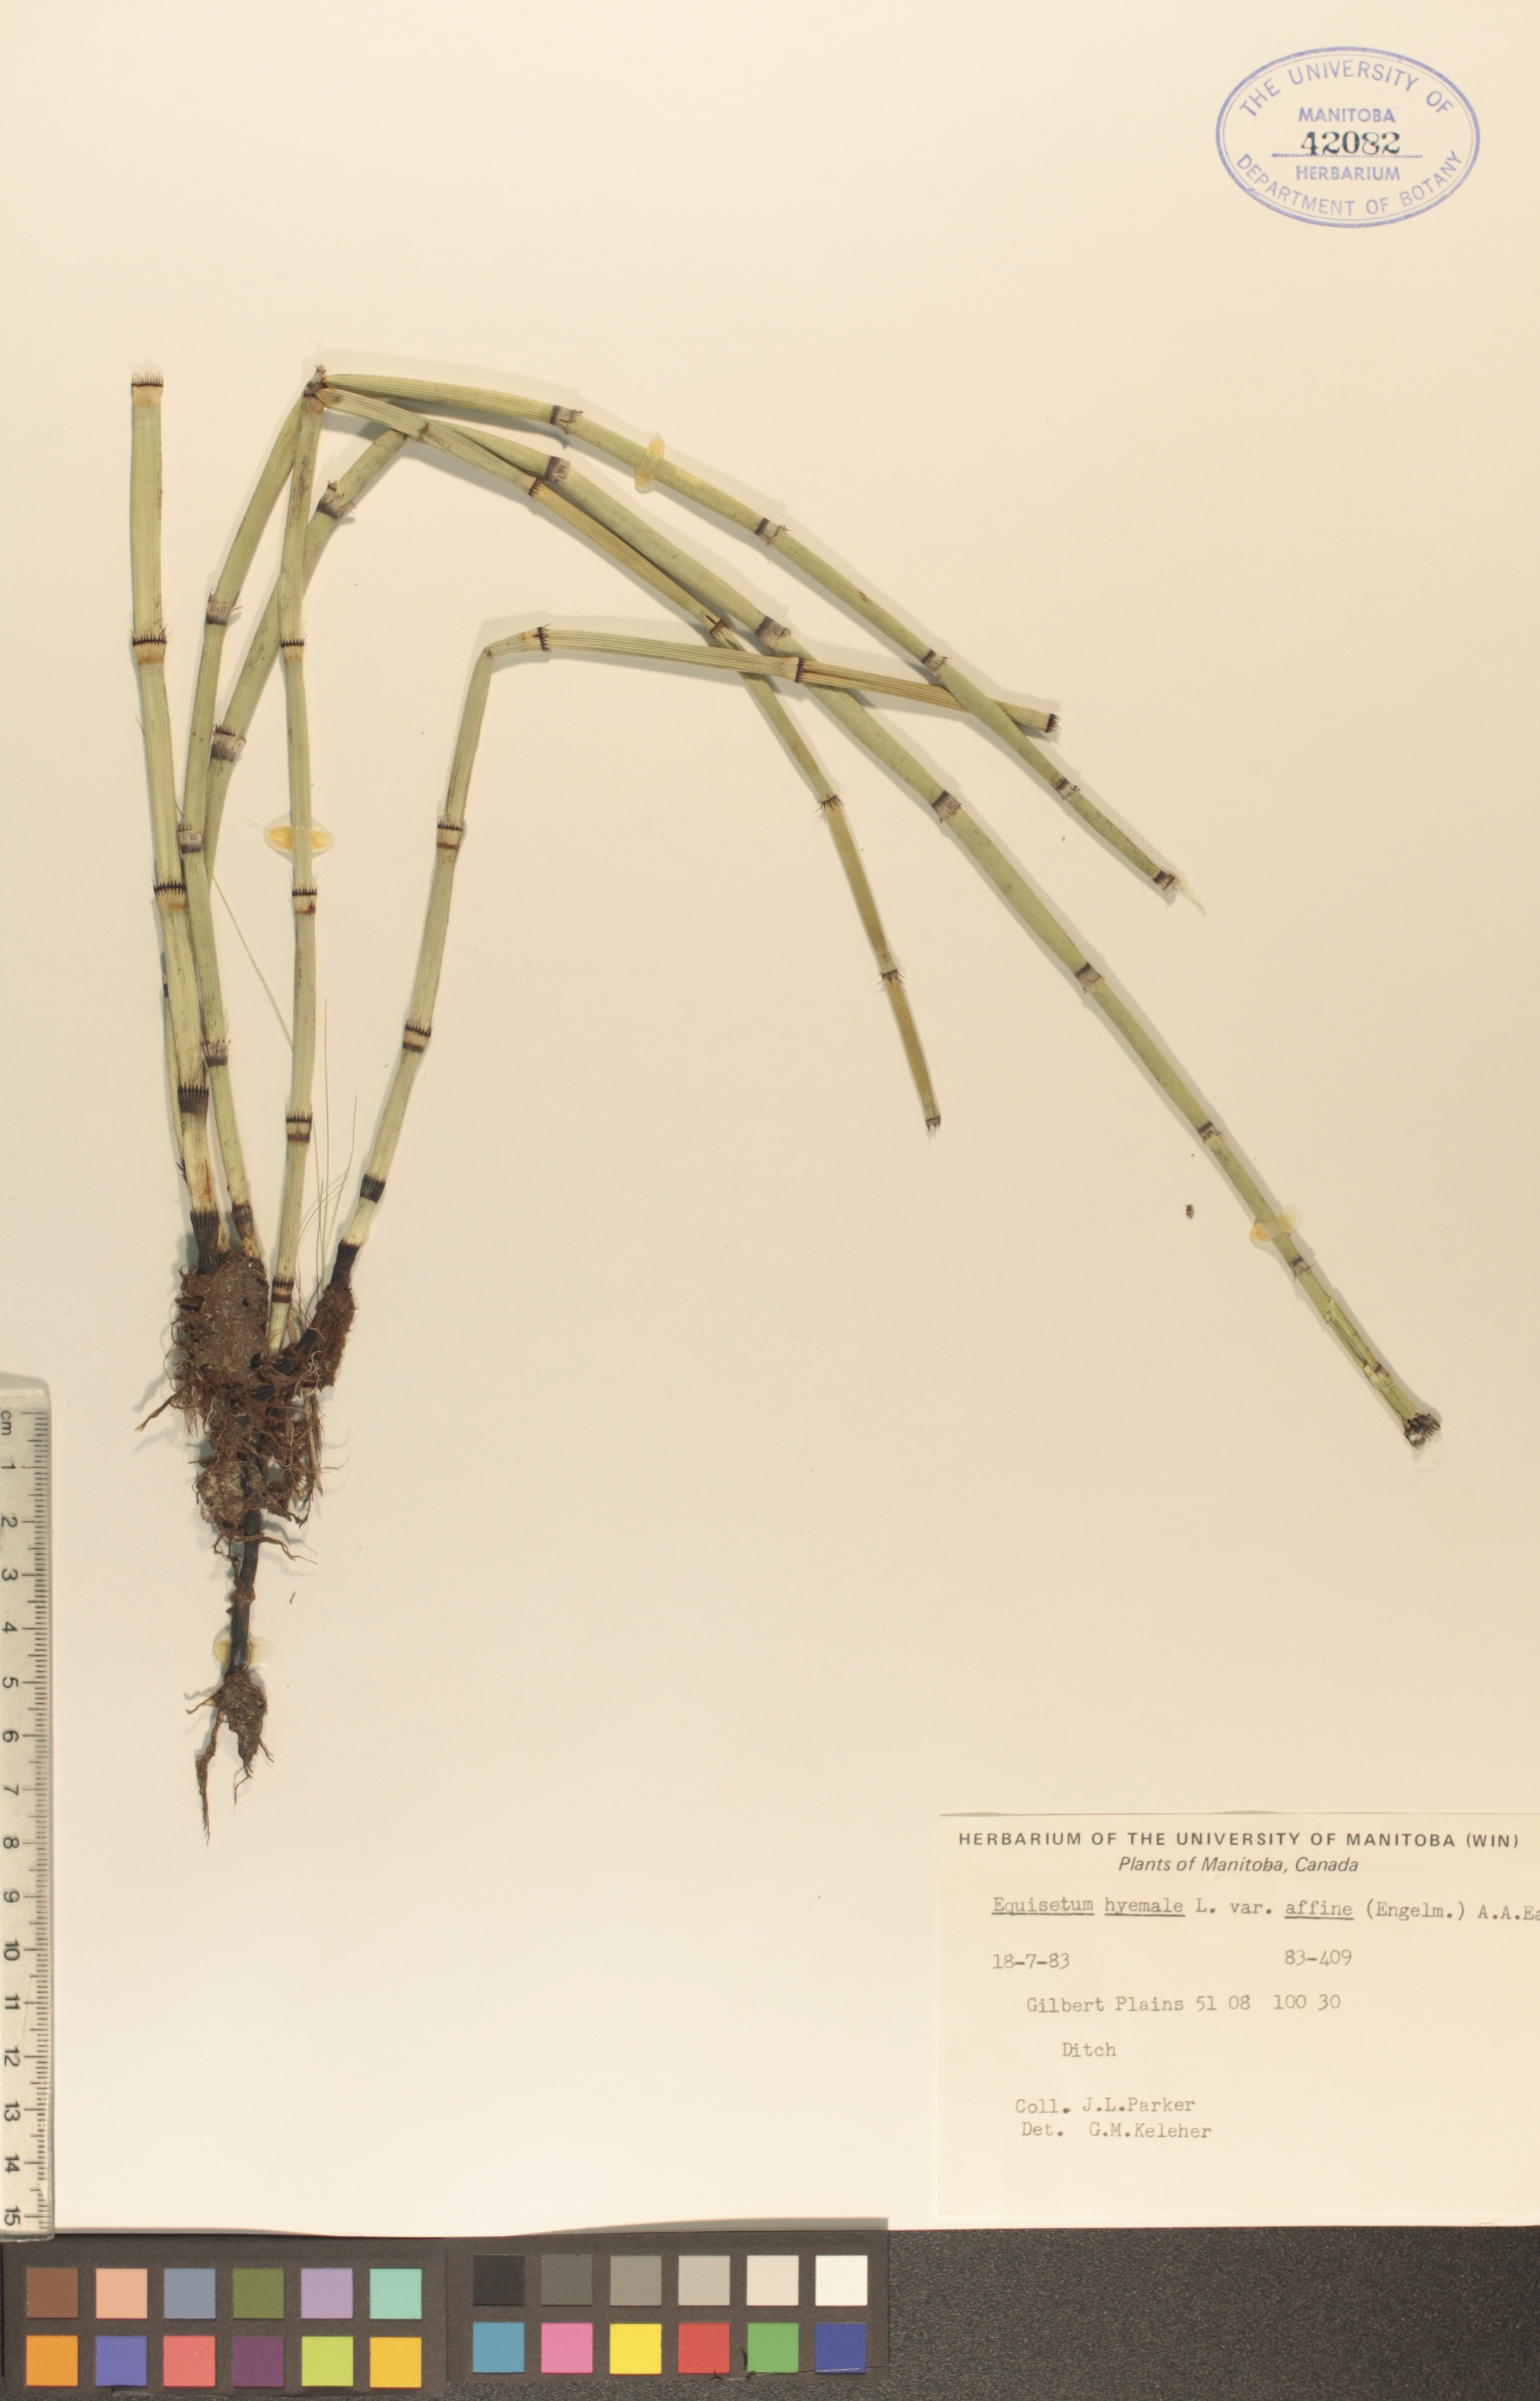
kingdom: Plantae
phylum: Tracheophyta
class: Polypodiopsida
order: Equisetales
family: Equisetaceae
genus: Equisetum
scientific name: Equisetum praealtum
